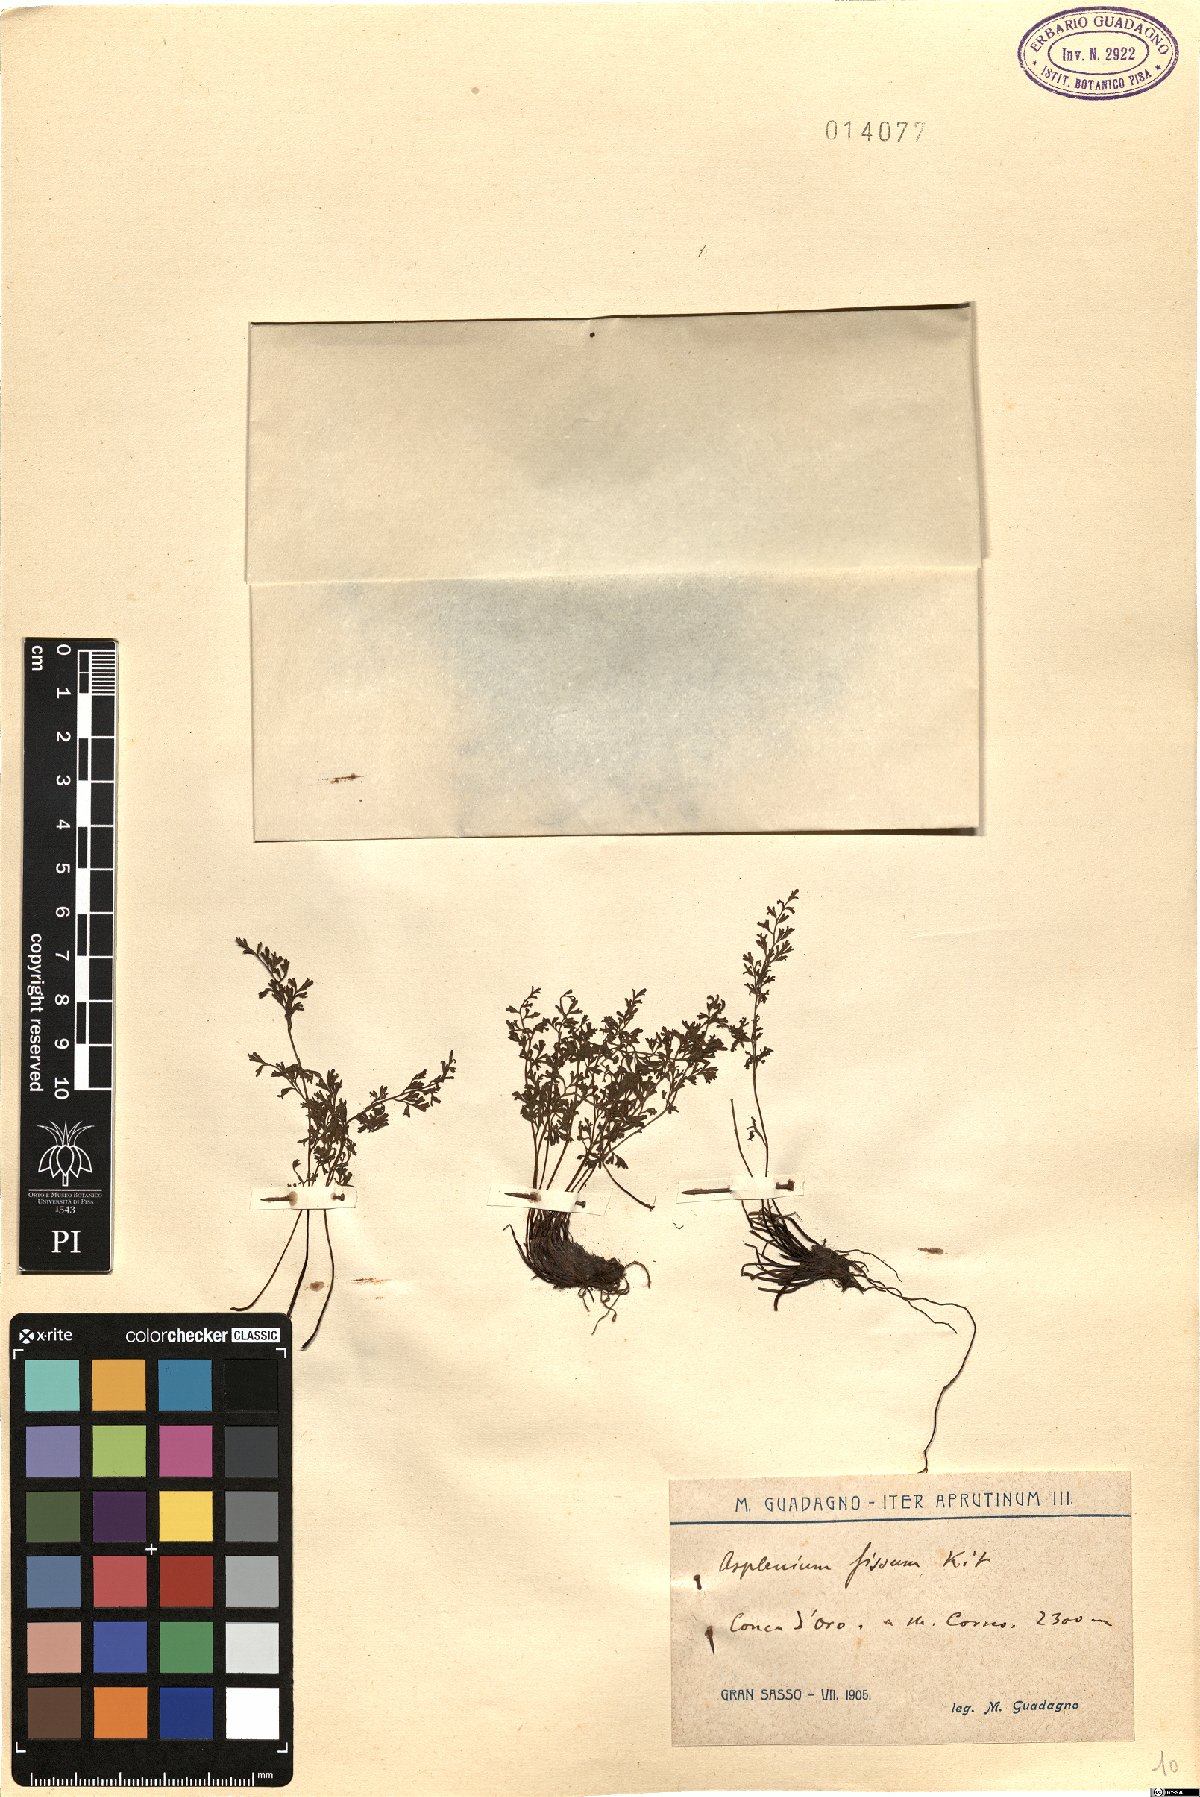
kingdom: Plantae
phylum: Tracheophyta
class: Polypodiopsida
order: Polypodiales
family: Aspleniaceae
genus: Asplenium
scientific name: Asplenium fissum
